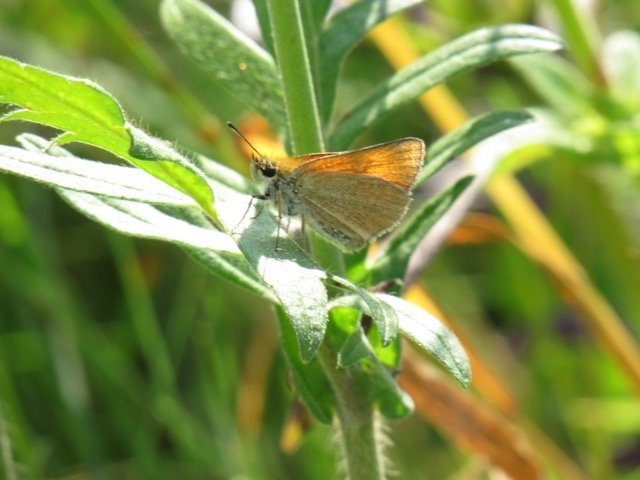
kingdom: Animalia
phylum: Arthropoda
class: Insecta
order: Lepidoptera
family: Hesperiidae
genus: Thymelicus
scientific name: Thymelicus lineola
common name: European Skipper
